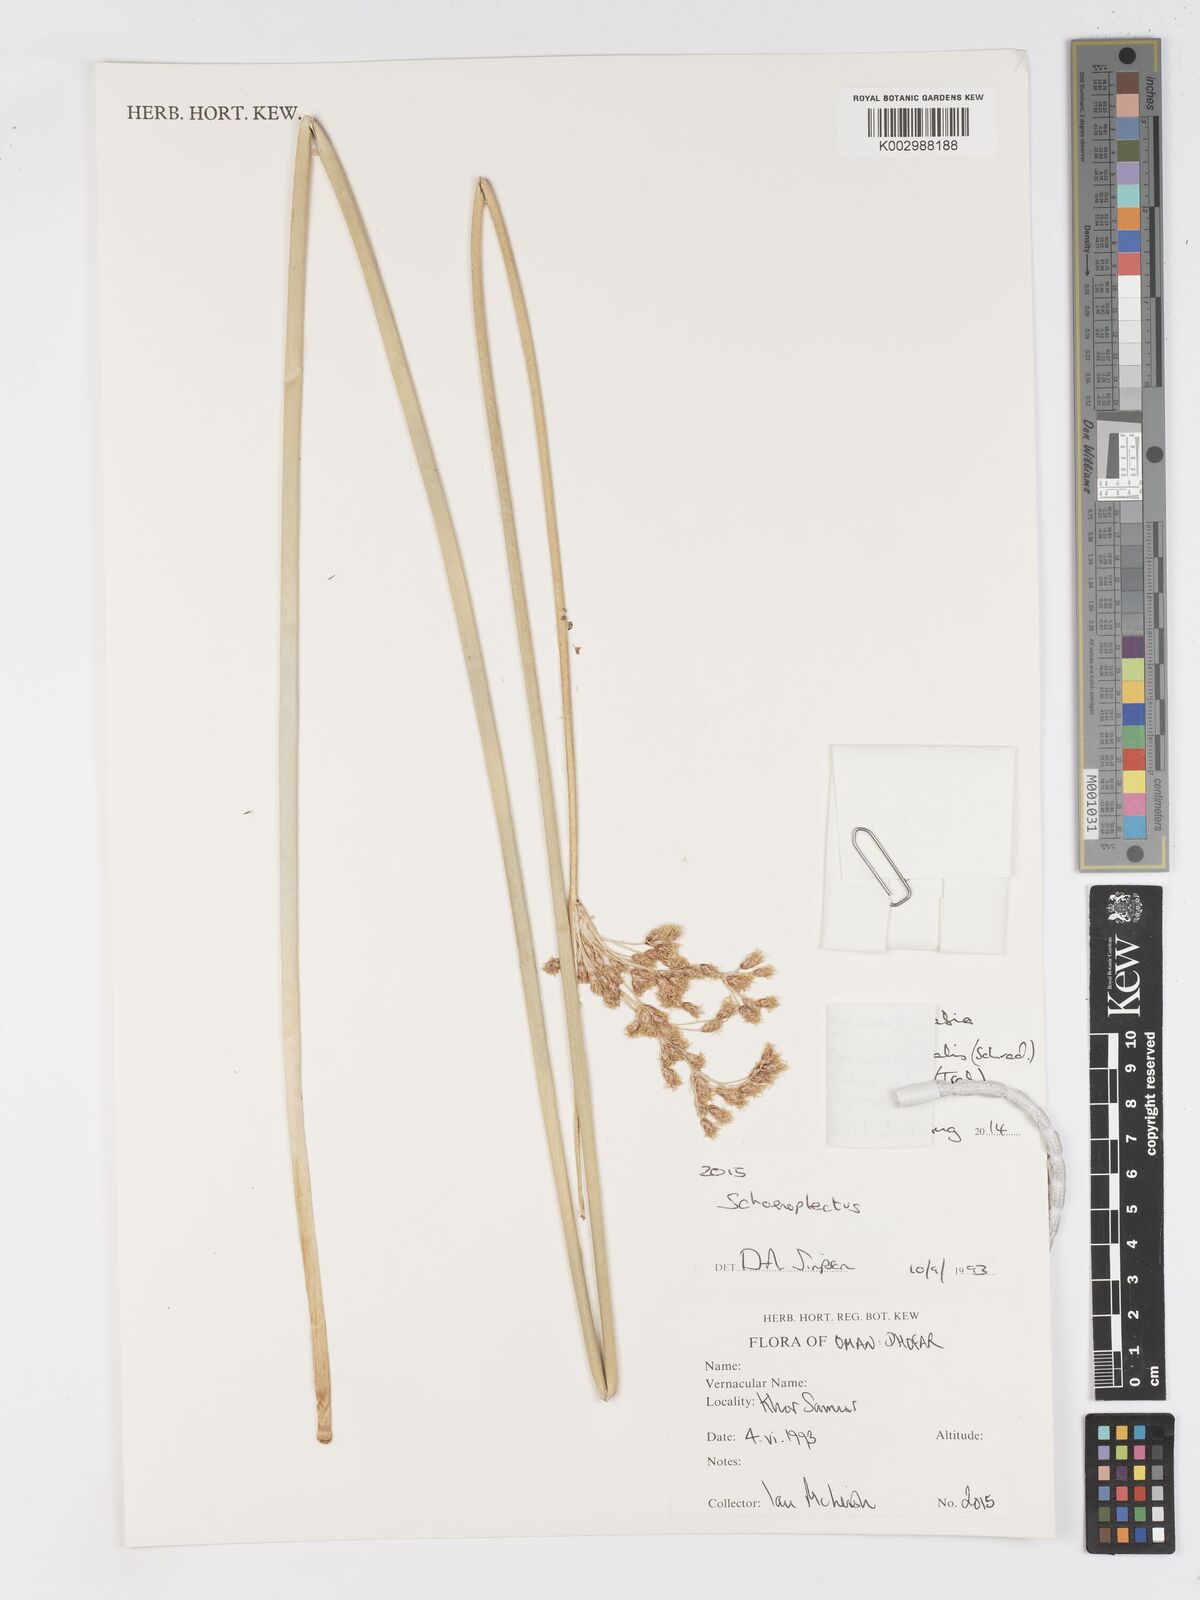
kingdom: Plantae
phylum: Tracheophyta
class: Liliopsida
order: Poales
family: Cyperaceae
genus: Schoenoplectus
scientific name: Schoenoplectus litoralis
